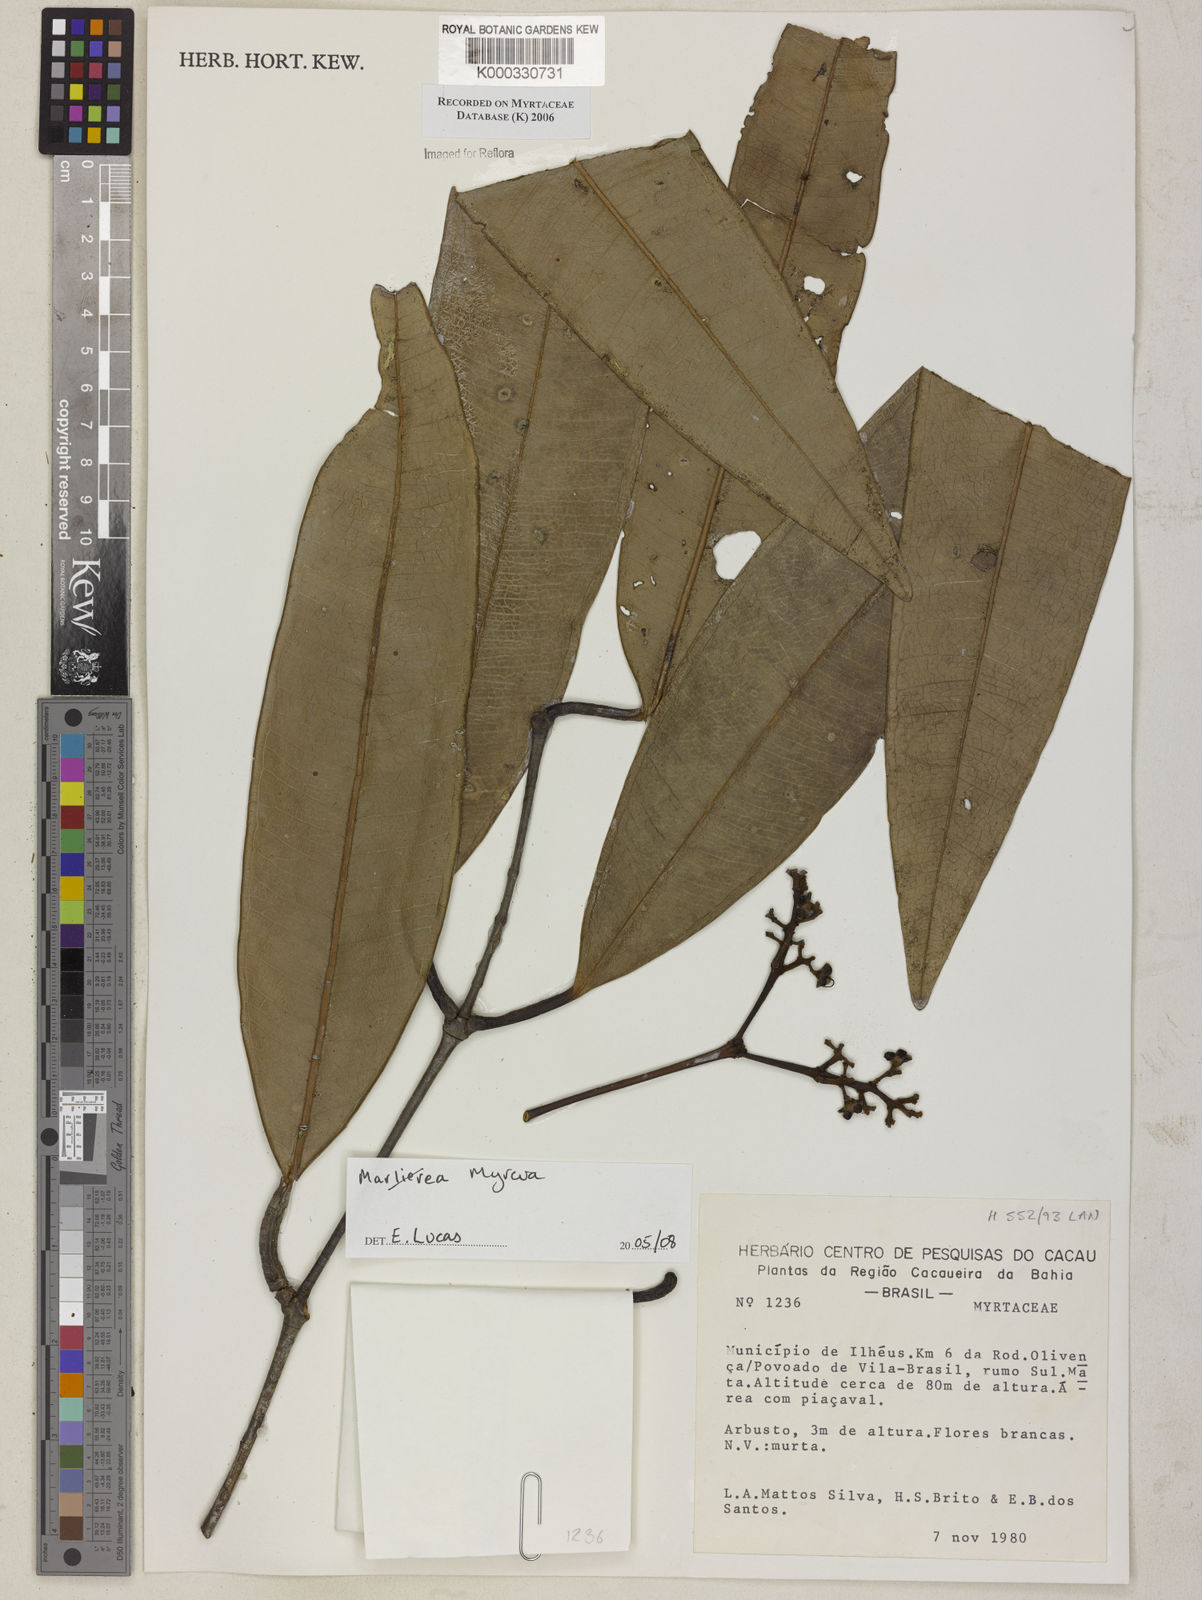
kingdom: Plantae
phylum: Tracheophyta
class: Magnoliopsida
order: Myrtales
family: Myrtaceae
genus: Marlierea
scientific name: Marlierea
